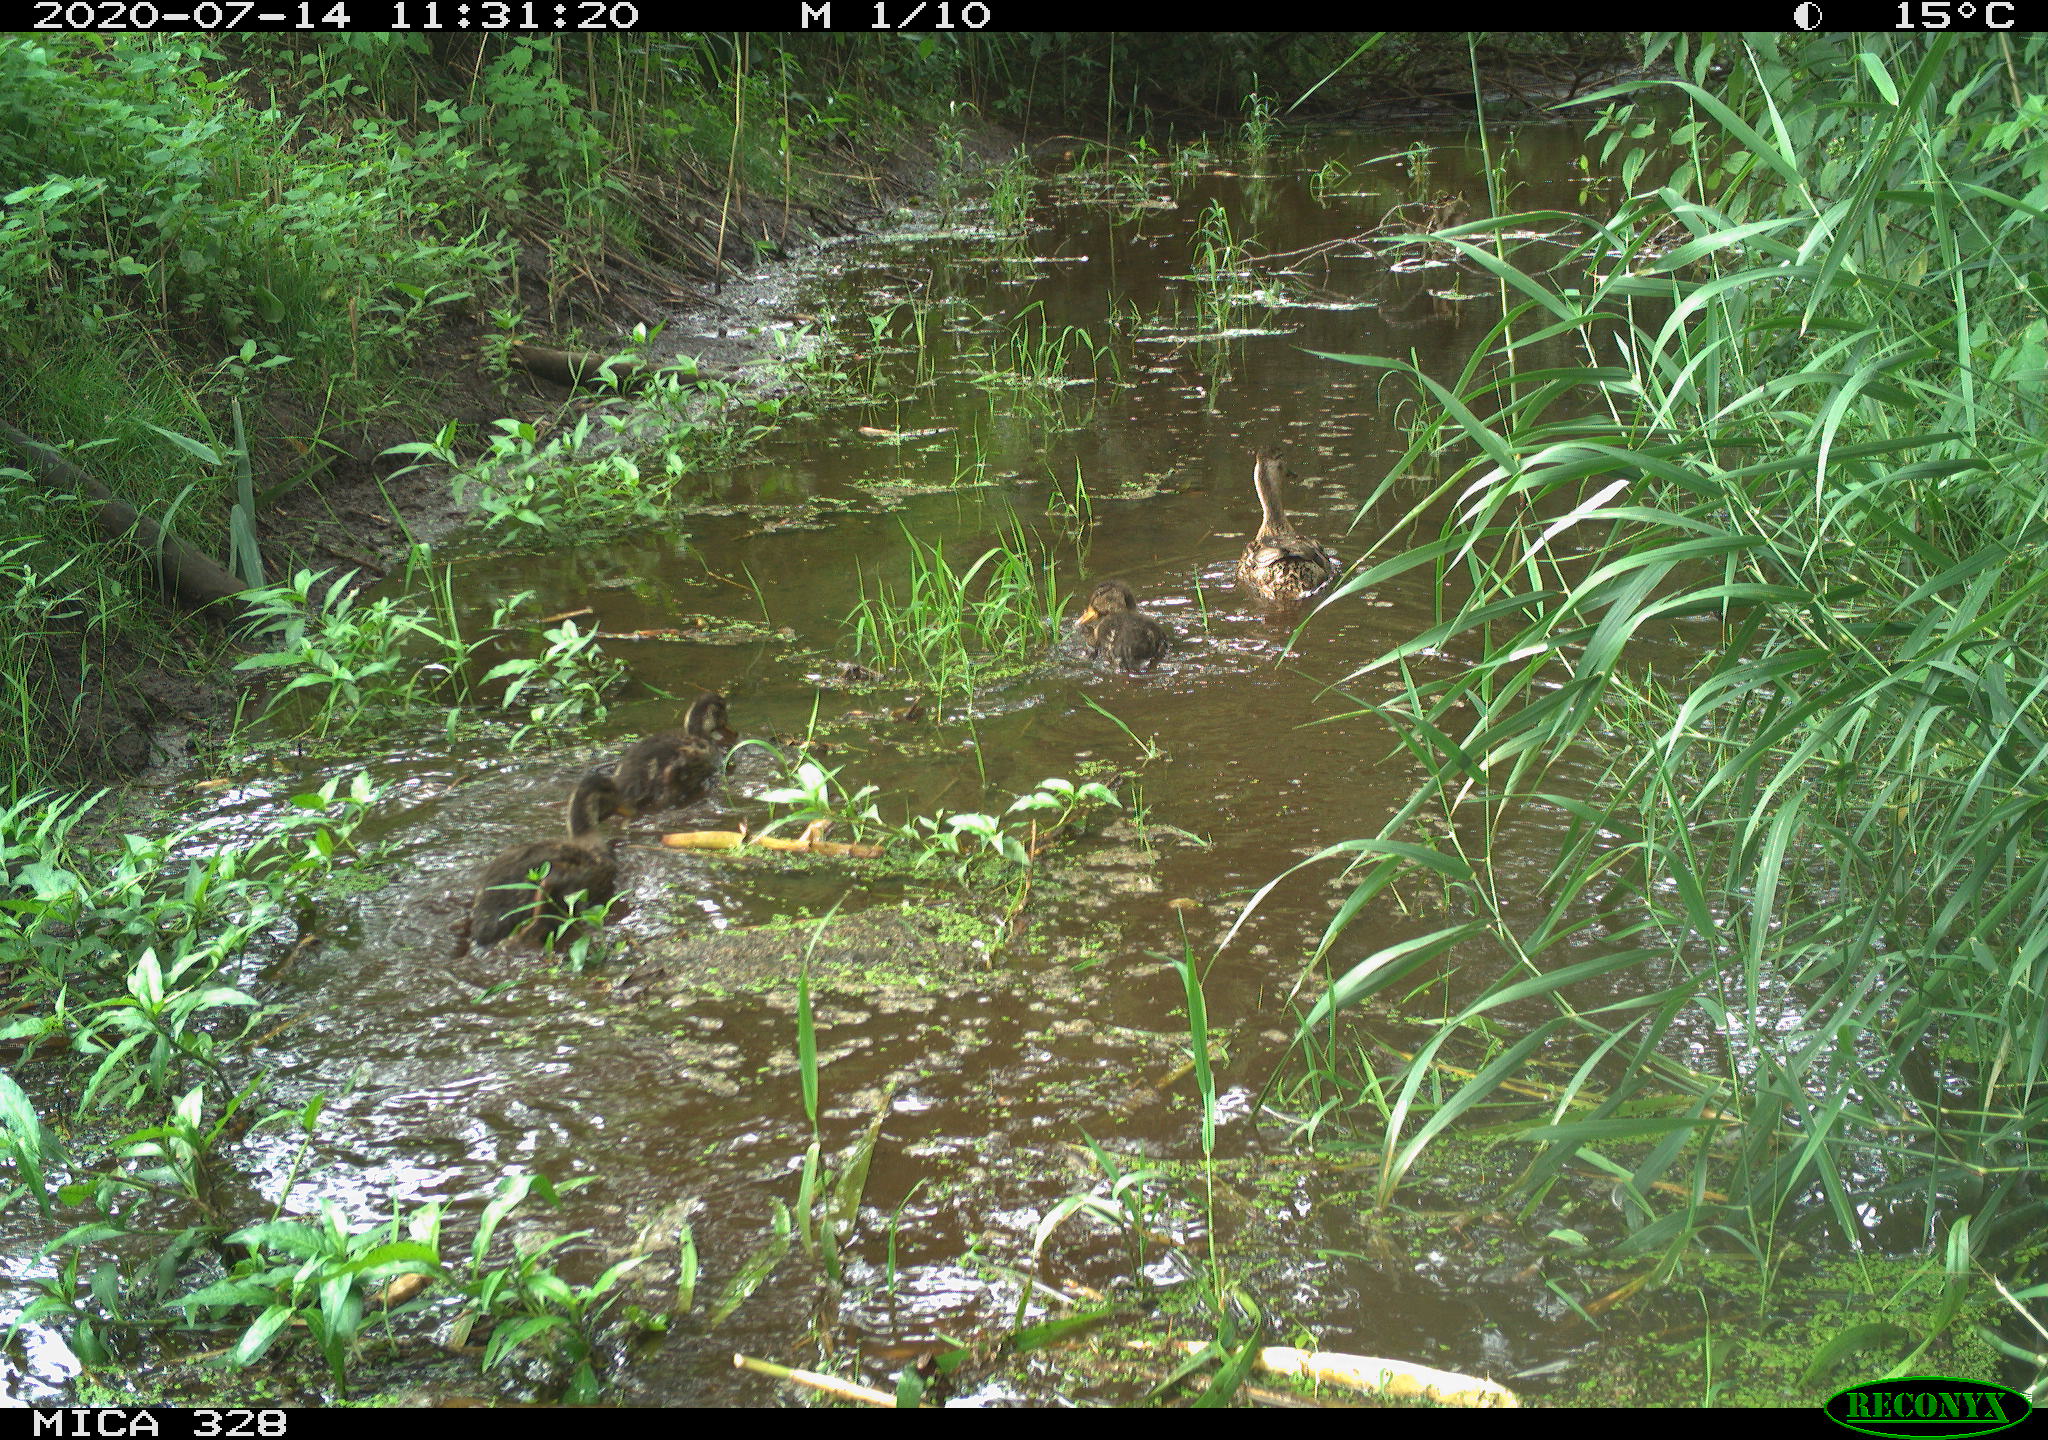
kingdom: Animalia
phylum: Chordata
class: Aves
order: Anseriformes
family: Anatidae
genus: Anas
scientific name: Anas platyrhynchos
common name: Mallard
